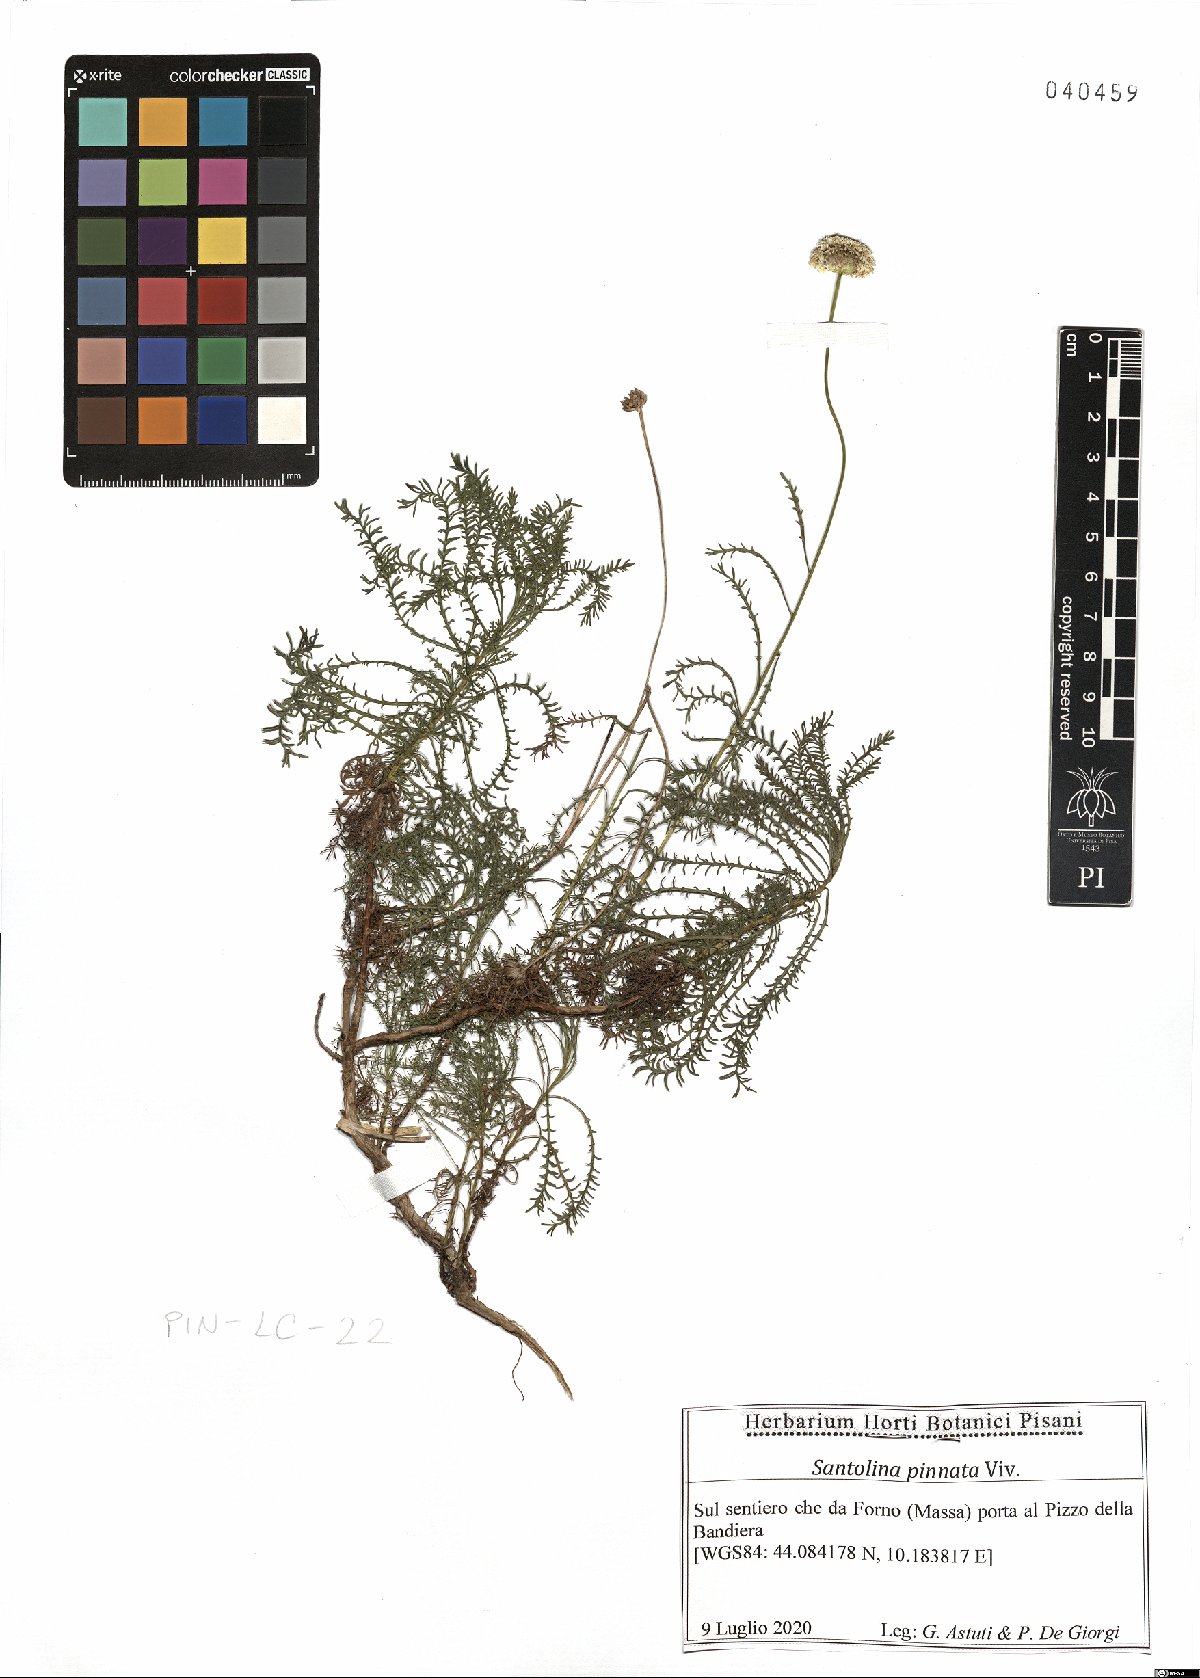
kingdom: Plantae
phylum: Tracheophyta
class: Magnoliopsida
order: Asterales
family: Asteraceae
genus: Santolina
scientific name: Santolina pinnata
